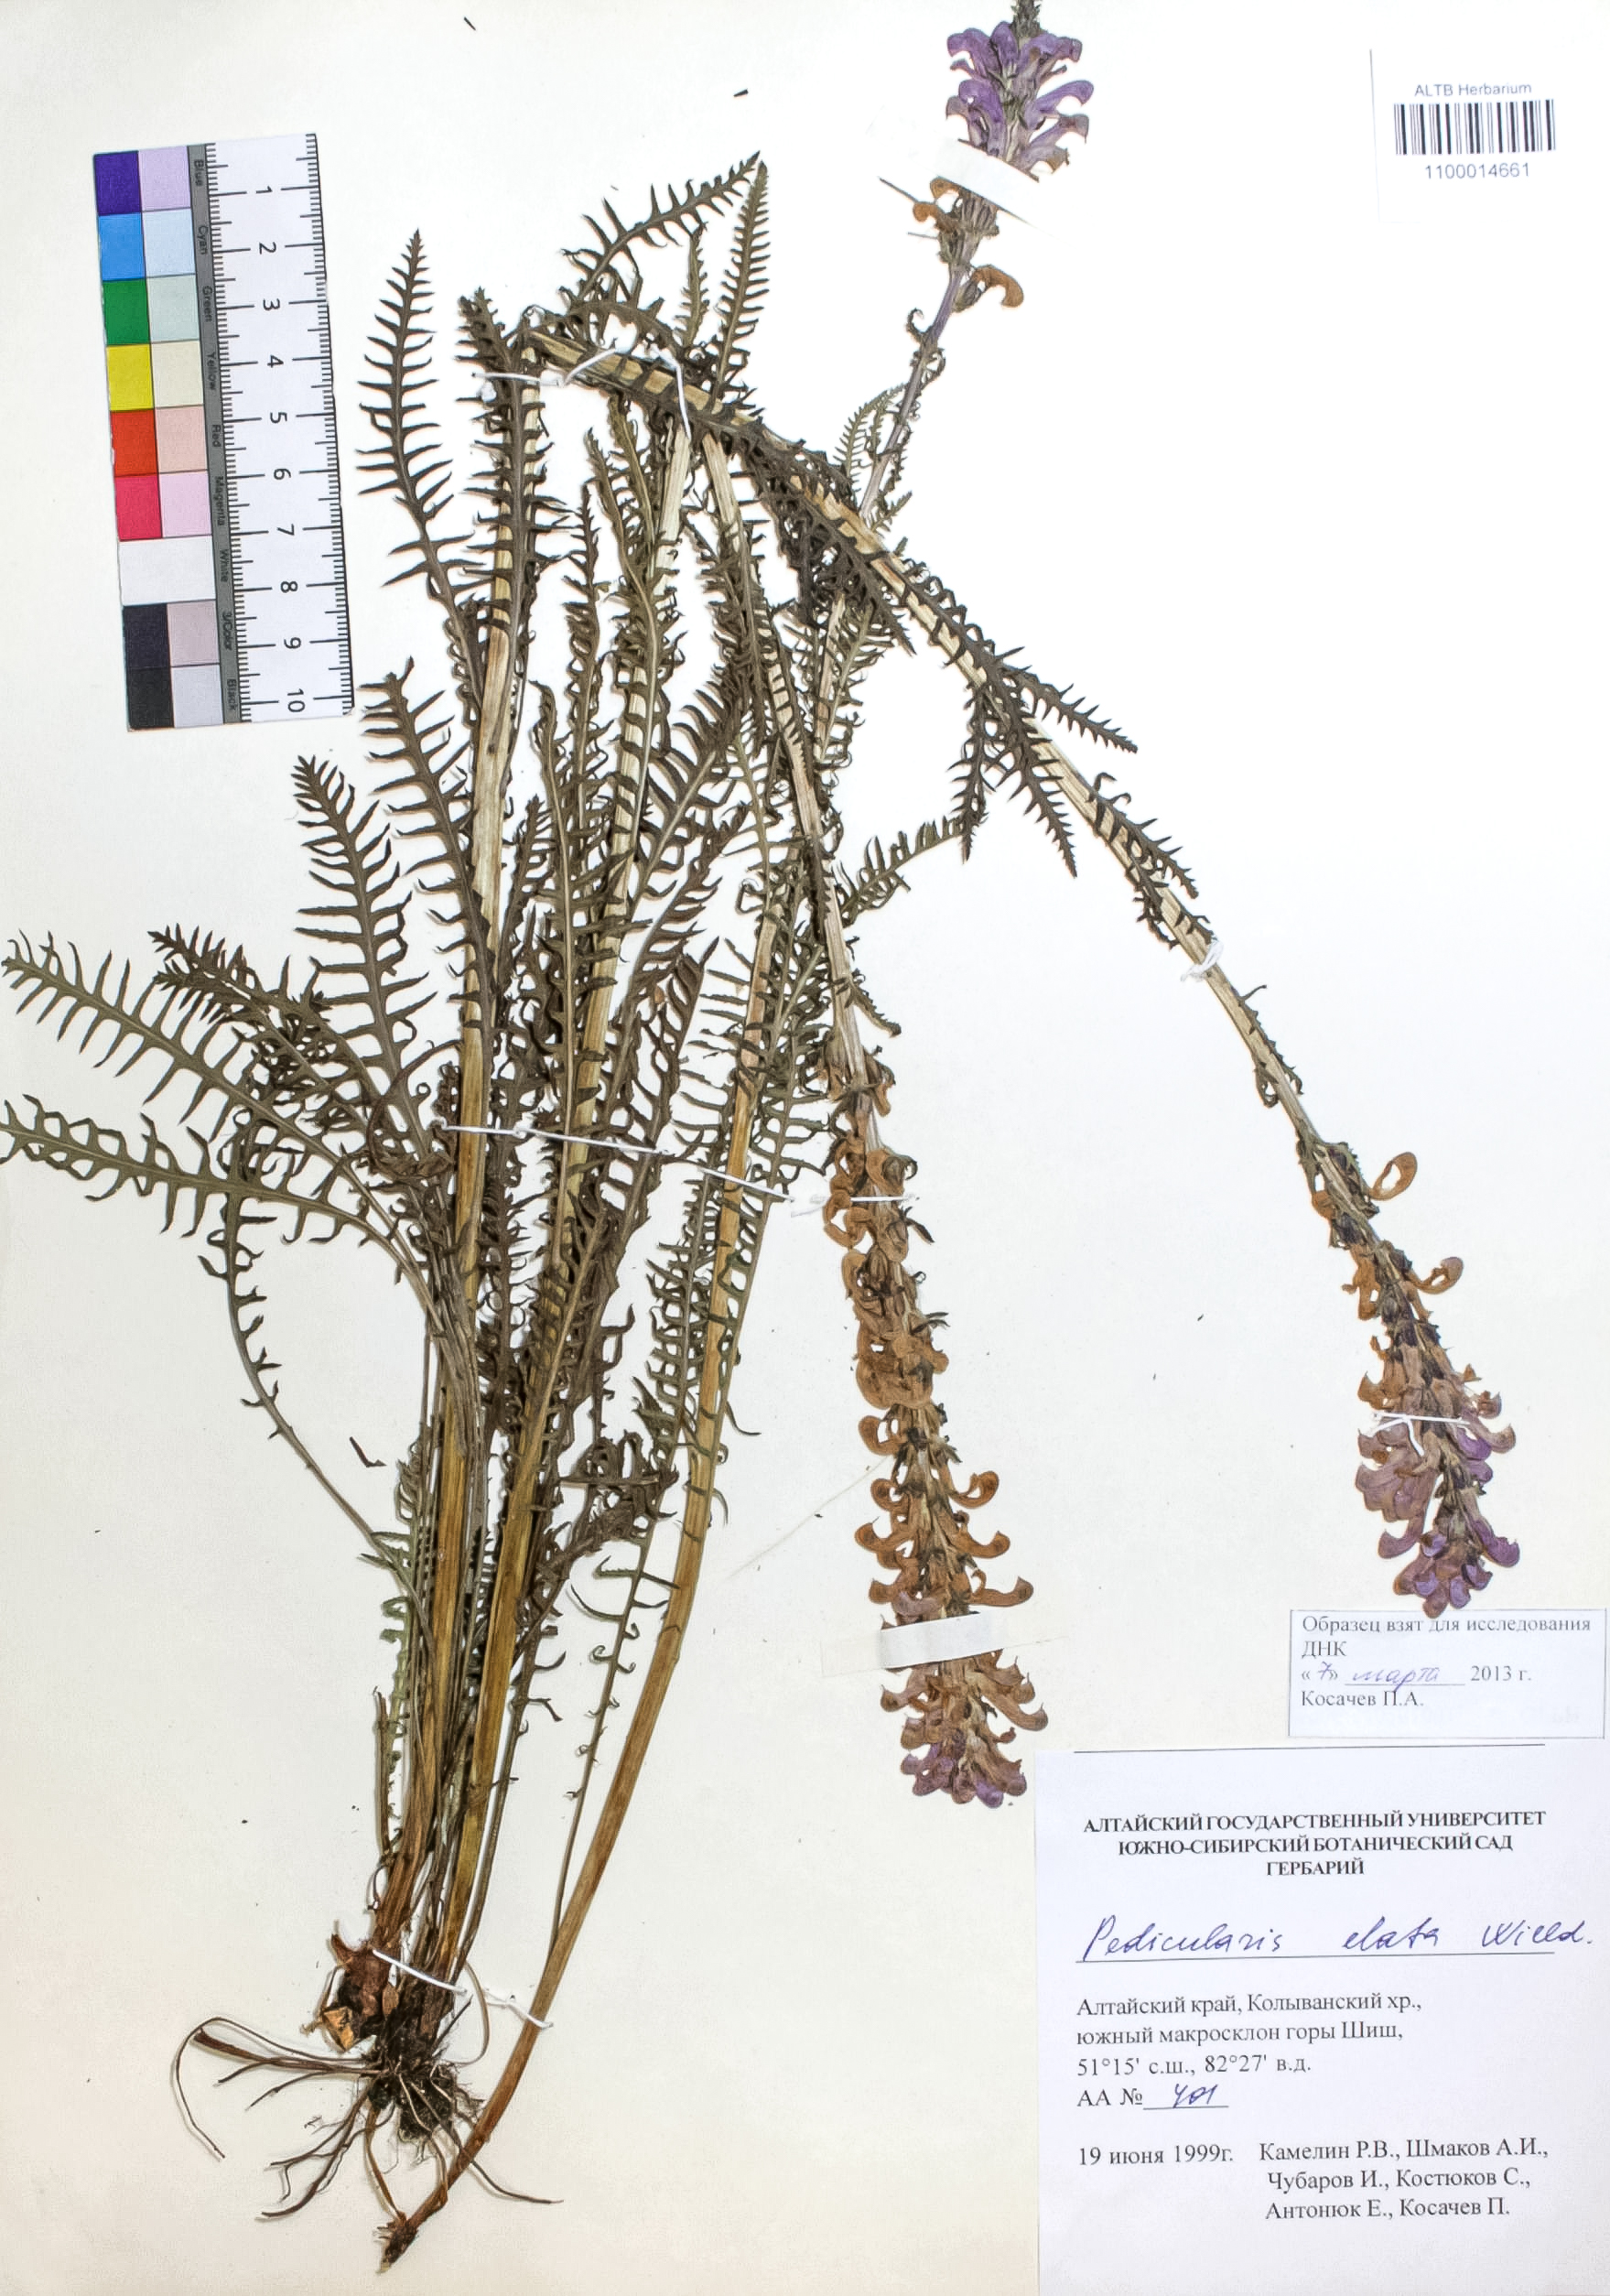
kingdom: Plantae
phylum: Tracheophyta
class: Magnoliopsida
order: Lamiales
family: Orobanchaceae
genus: Pedicularis
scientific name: Pedicularis elata
